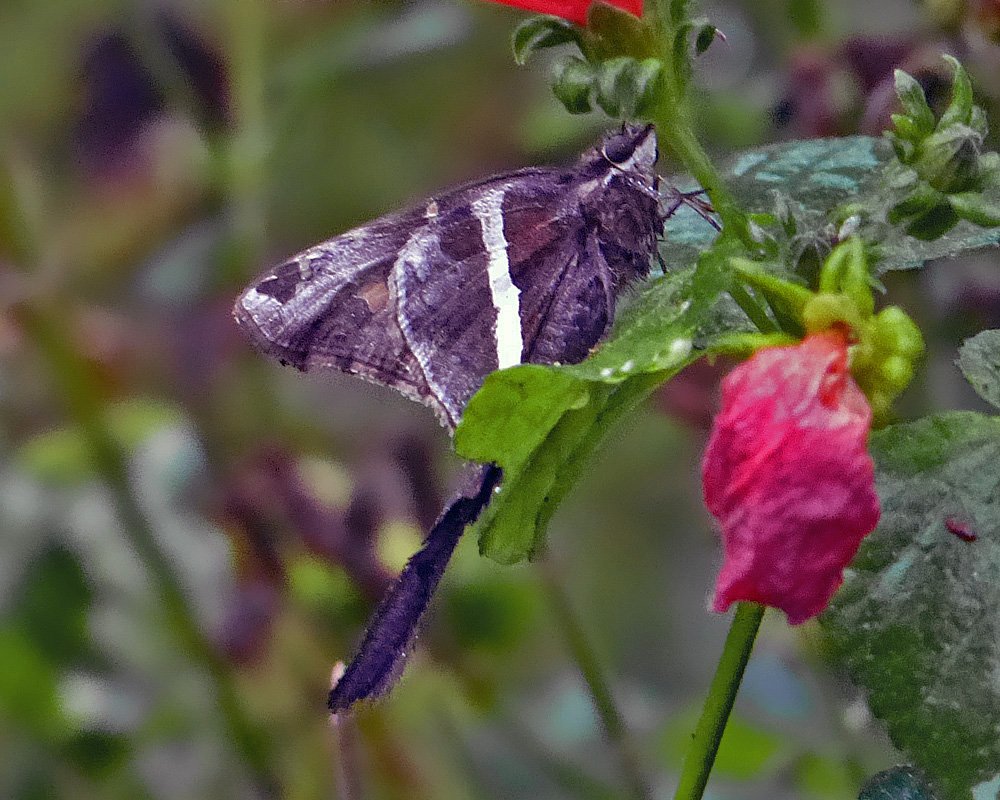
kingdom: Animalia
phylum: Arthropoda
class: Insecta
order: Lepidoptera
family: Hesperiidae
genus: Chioides
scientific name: Chioides catillus
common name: White-striped Longtail
